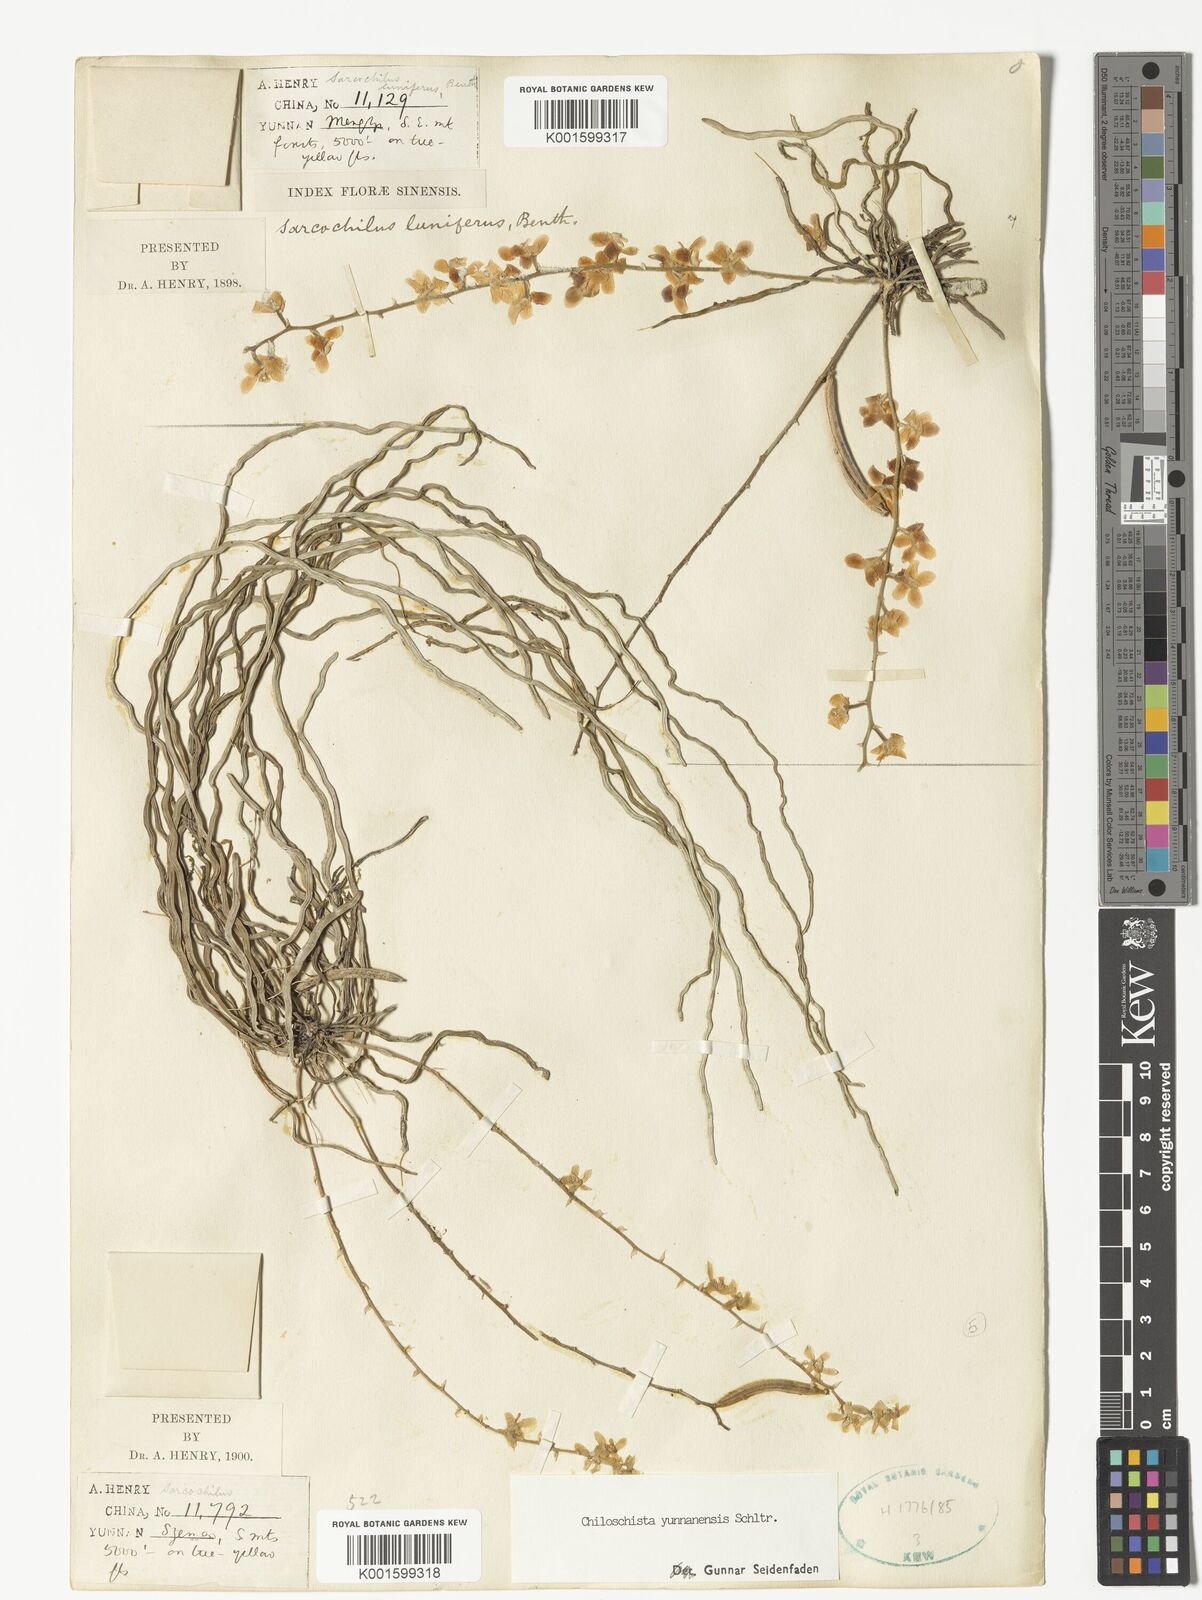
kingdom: Plantae
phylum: Tracheophyta
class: Liliopsida
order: Asparagales
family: Orchidaceae
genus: Chiloschista
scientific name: Chiloschista yunnanensis
